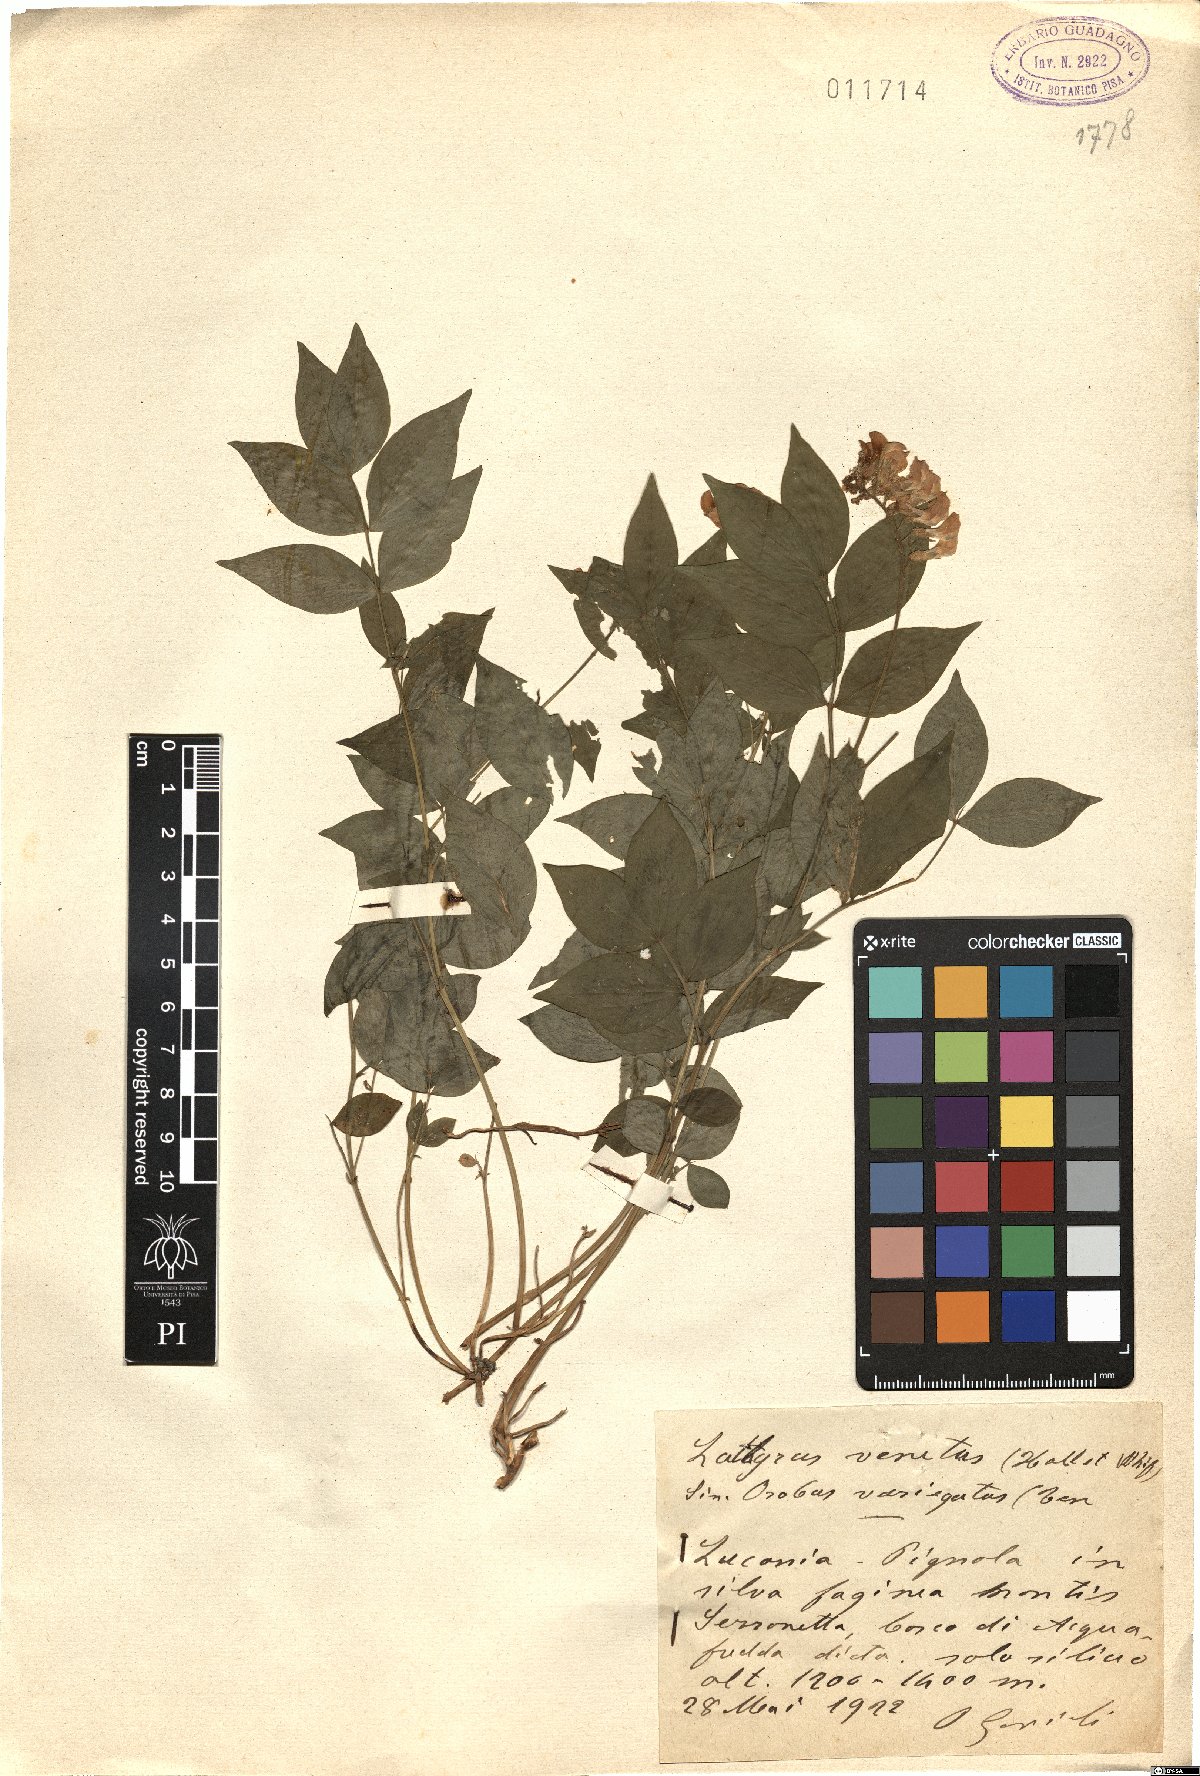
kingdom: Plantae
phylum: Tracheophyta
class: Magnoliopsida
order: Fabales
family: Fabaceae
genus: Lathyrus
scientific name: Lathyrus venetus
